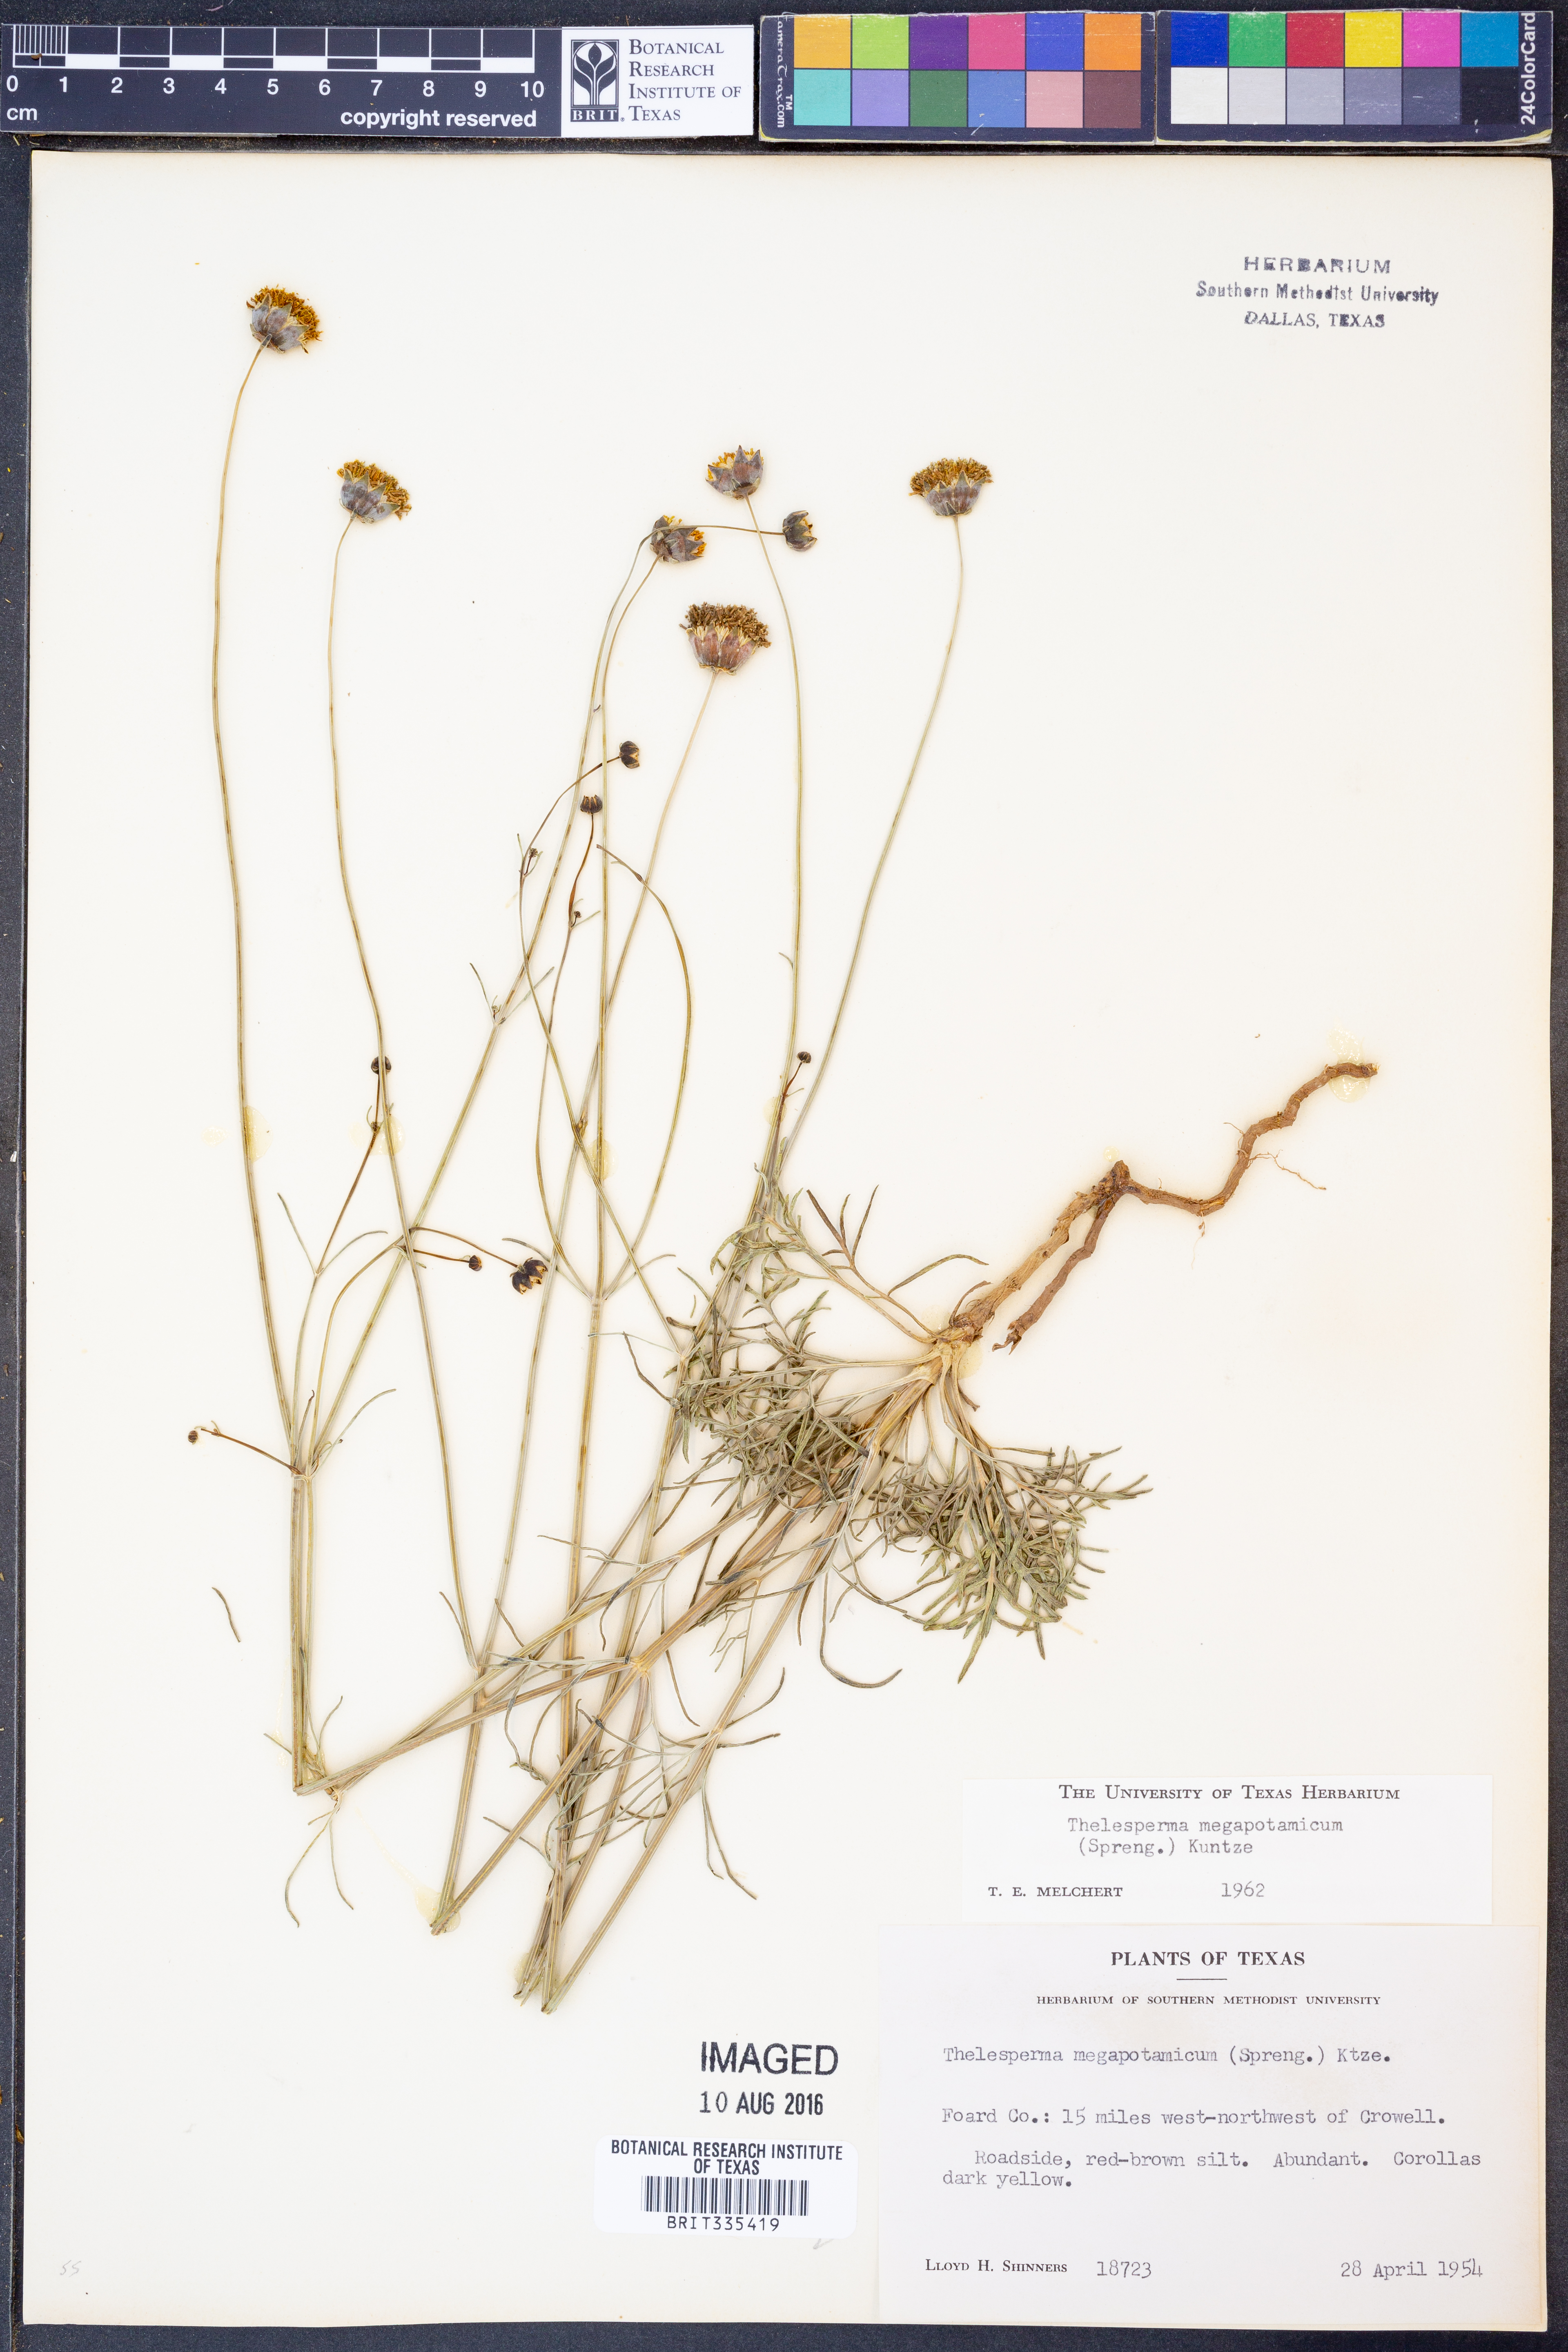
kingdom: Plantae
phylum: Tracheophyta
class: Magnoliopsida
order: Asterales
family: Asteraceae
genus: Thelesperma
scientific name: Thelesperma megapotamicum
